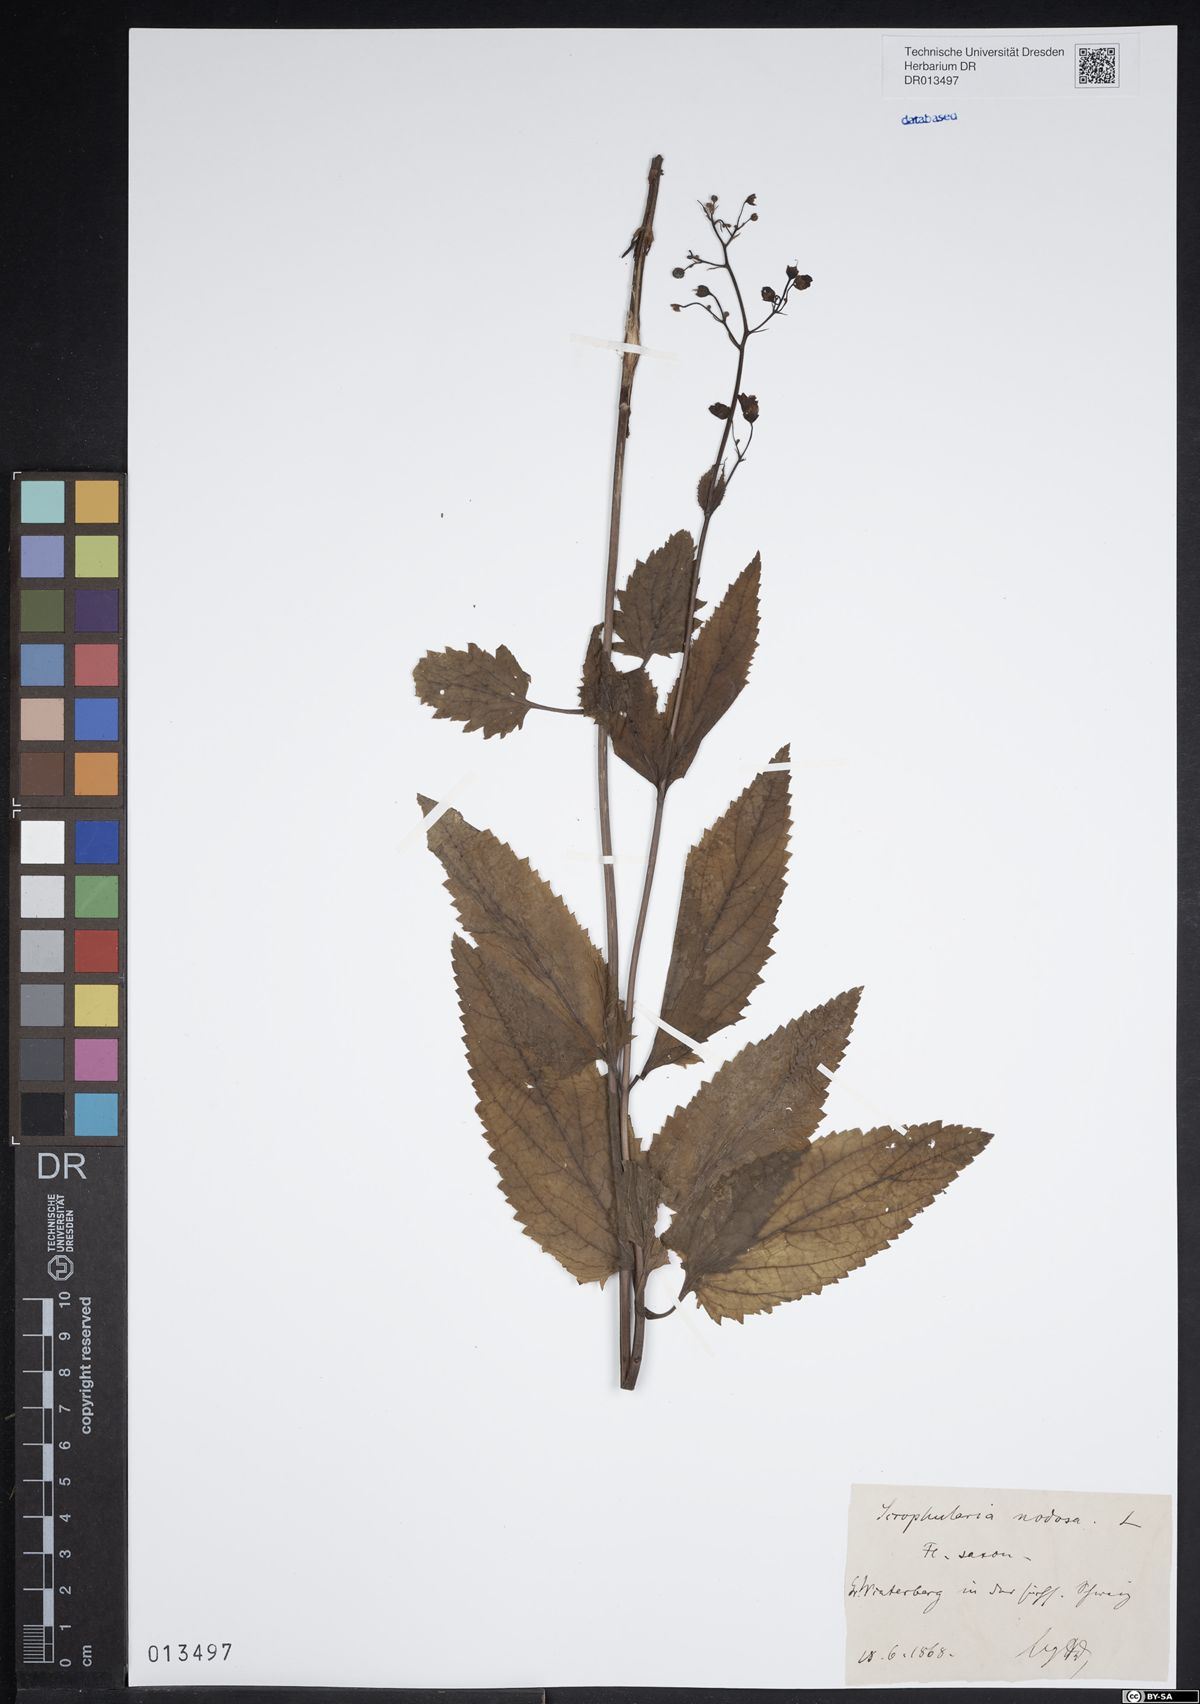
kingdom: Plantae
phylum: Tracheophyta
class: Magnoliopsida
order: Lamiales
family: Scrophulariaceae
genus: Scrophularia
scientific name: Scrophularia nodosa
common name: Common figwort
